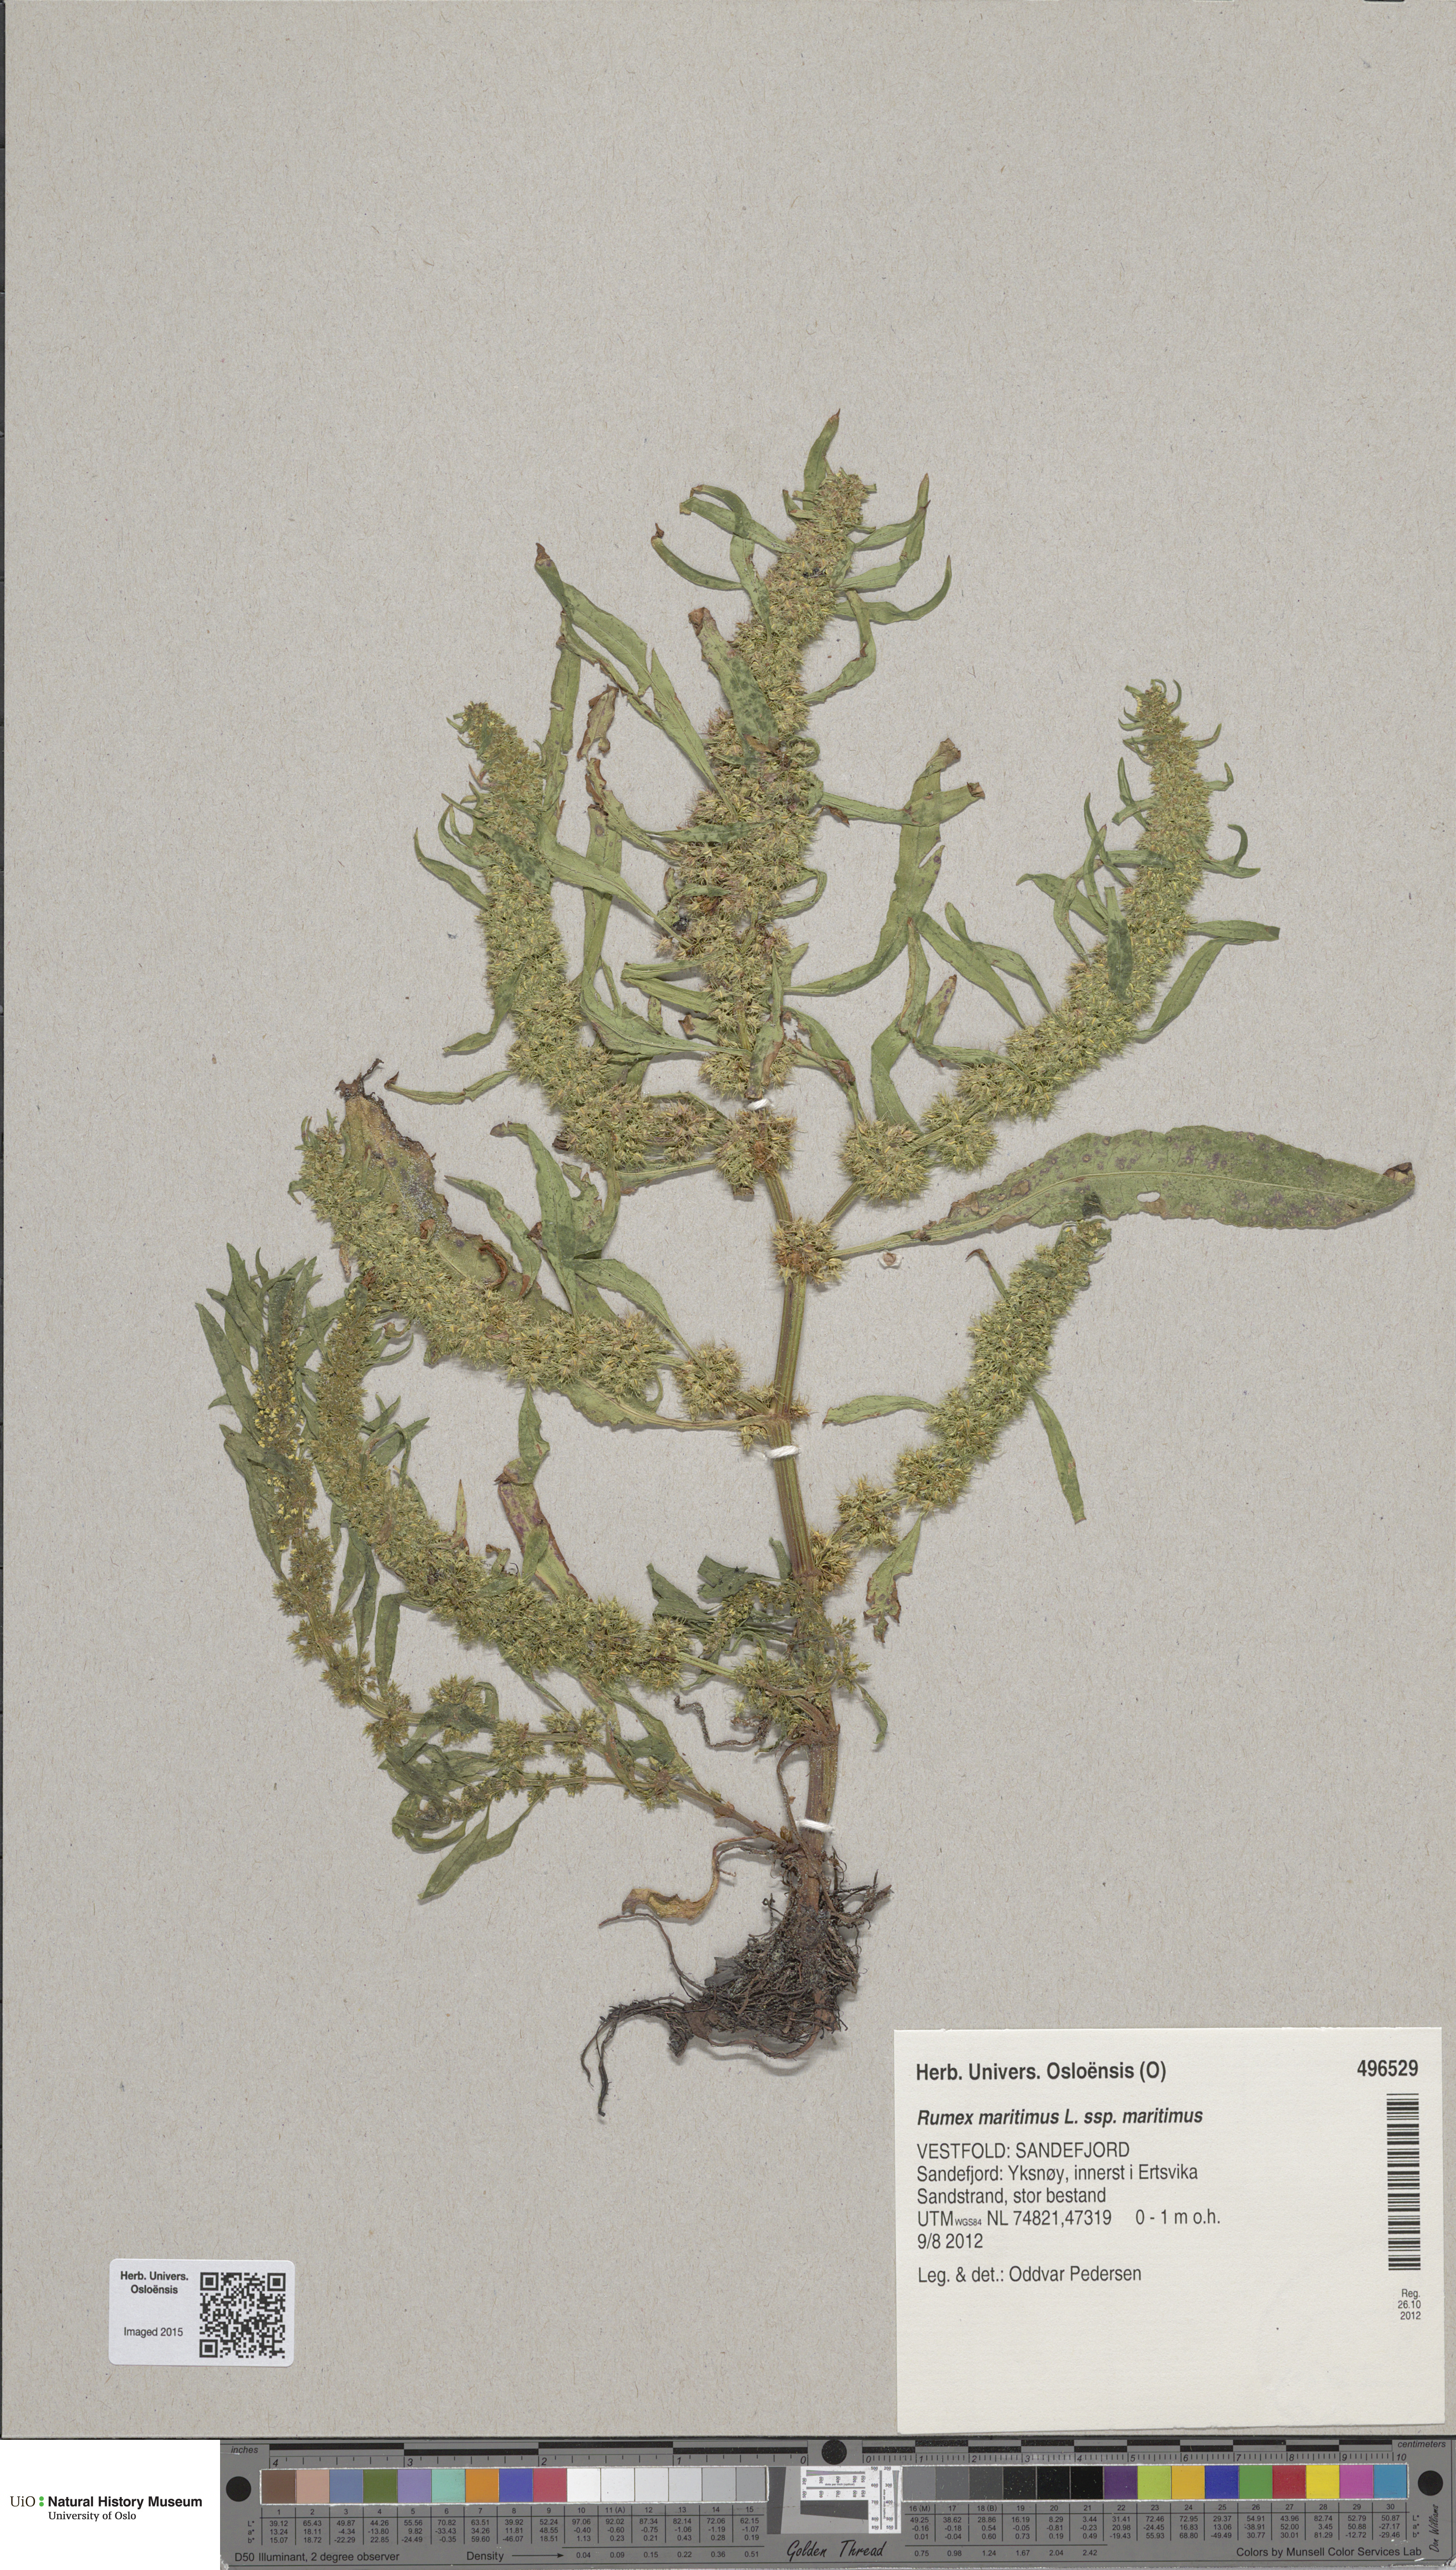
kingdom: Plantae
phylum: Tracheophyta
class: Magnoliopsida
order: Caryophyllales
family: Polygonaceae
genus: Rumex
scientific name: Rumex maritimus
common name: Golden dock
